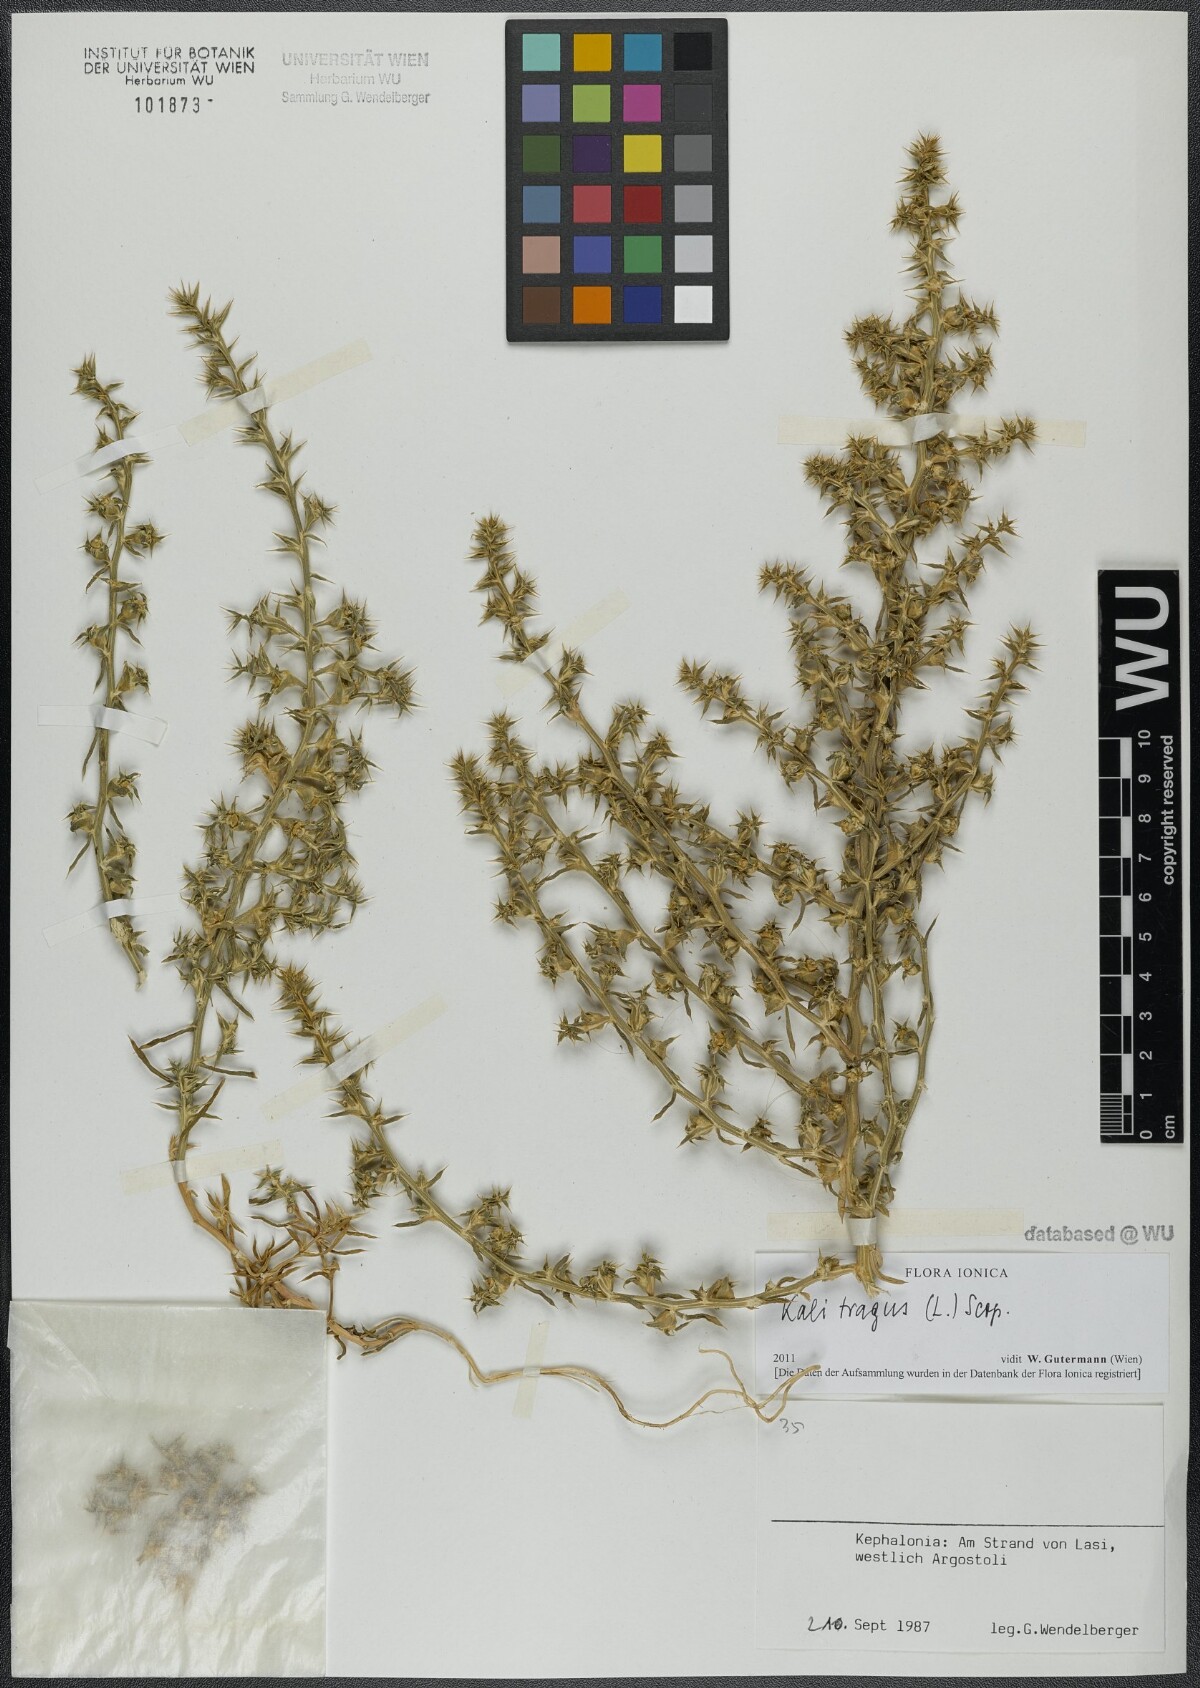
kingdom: Plantae
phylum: Tracheophyta
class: Magnoliopsida
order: Caryophyllales
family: Amaranthaceae
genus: Salsola
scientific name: Salsola tragus
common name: Prickly russian thistle
